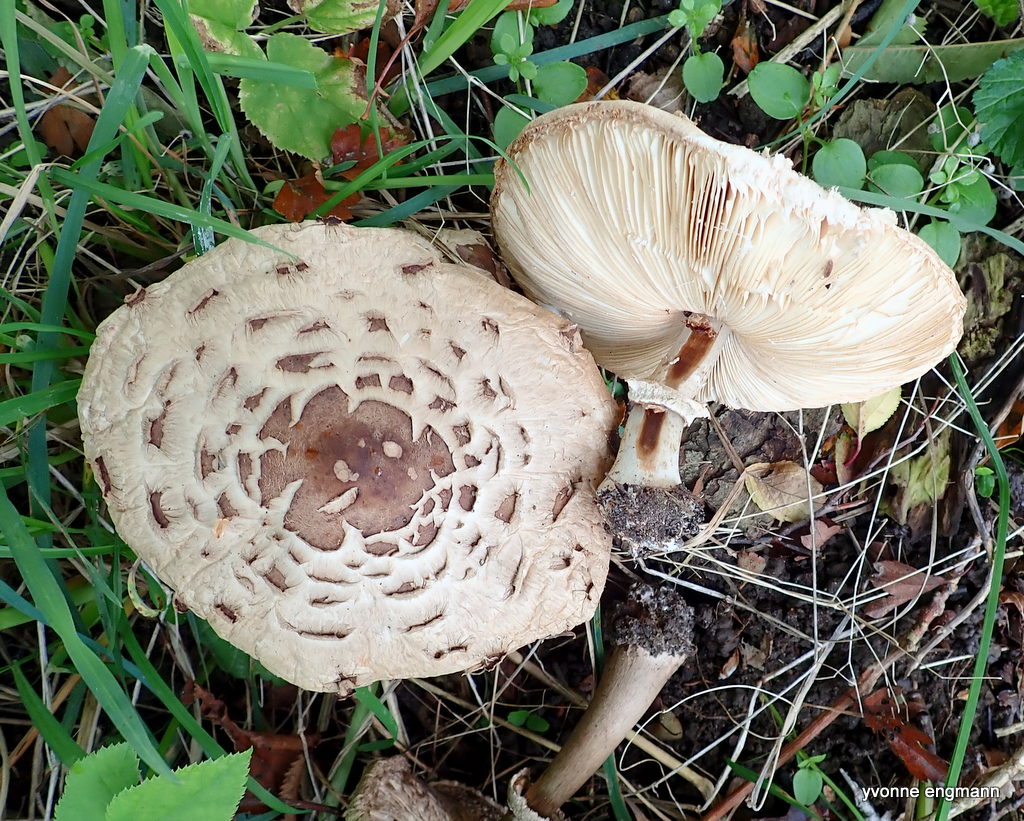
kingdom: Fungi
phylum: Basidiomycota
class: Agaricomycetes
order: Agaricales
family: Agaricaceae
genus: Chlorophyllum
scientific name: Chlorophyllum brunneum
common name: giftig rabarberhat
